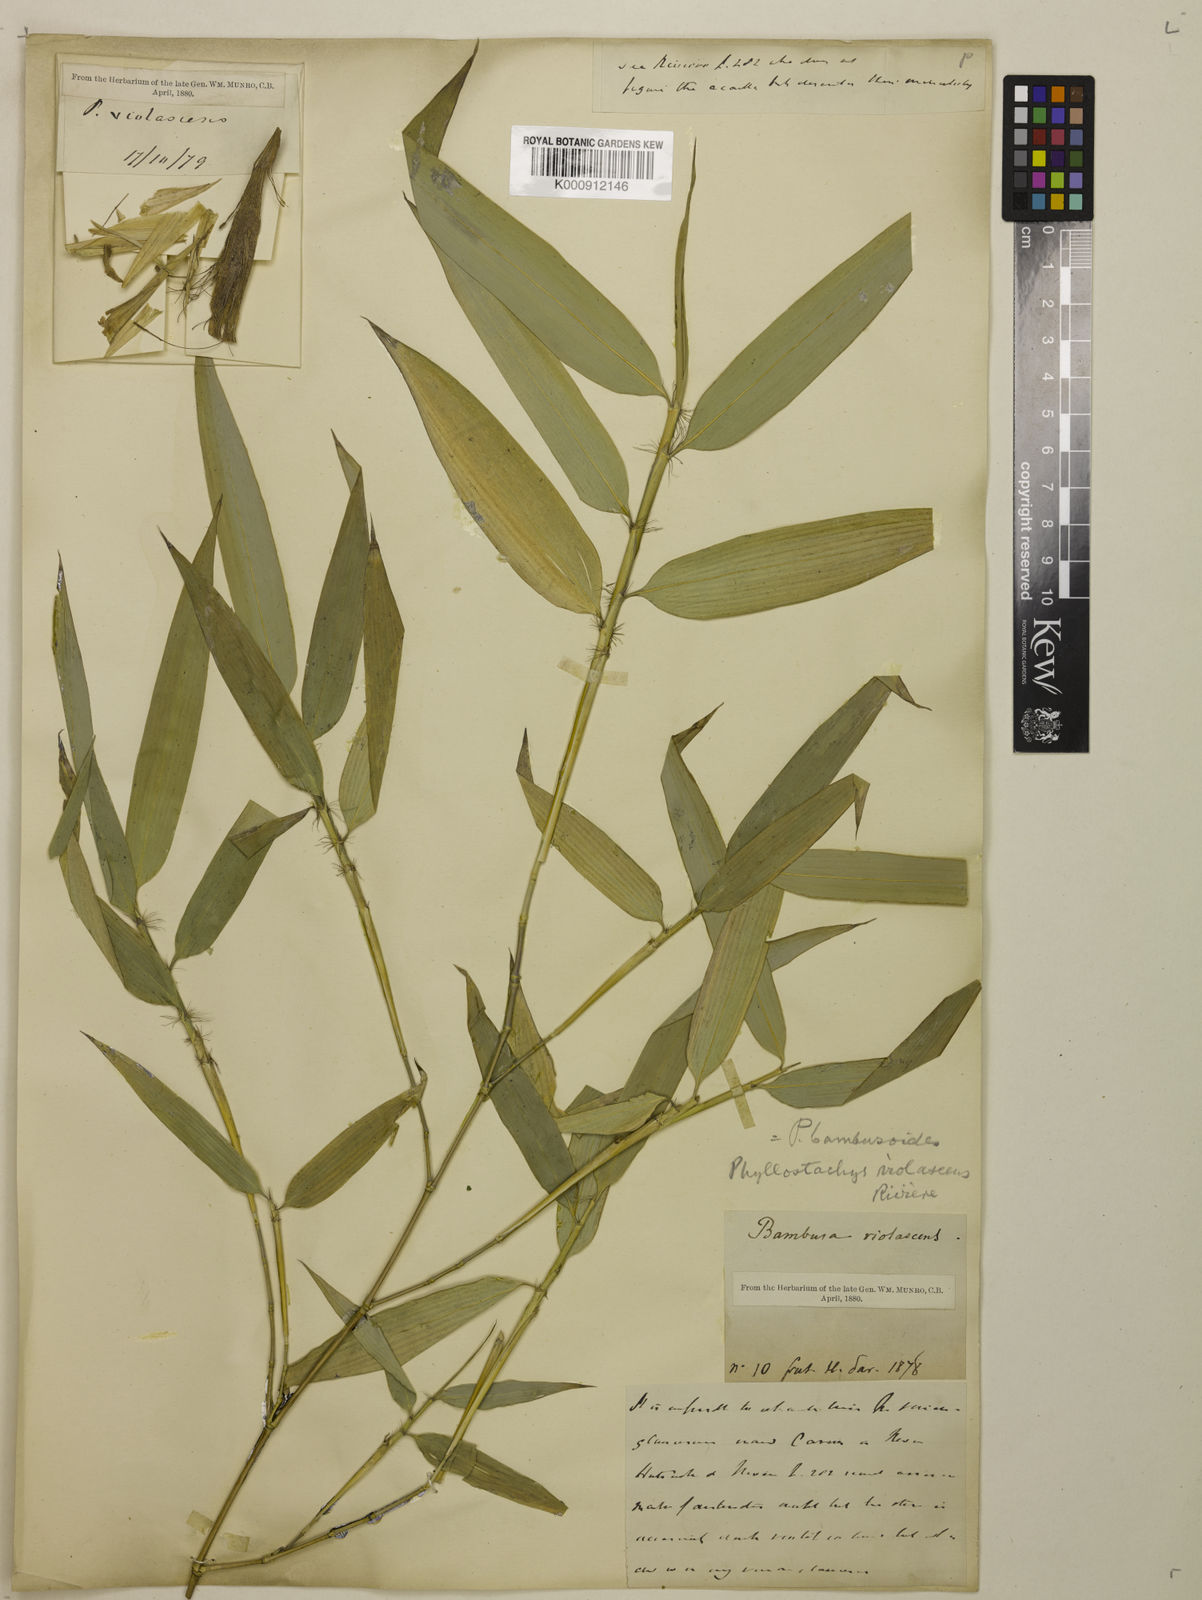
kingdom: Plantae
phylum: Tracheophyta
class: Liliopsida
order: Poales
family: Poaceae
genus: Phyllostachys
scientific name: Phyllostachys reticulata
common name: Bamboo
